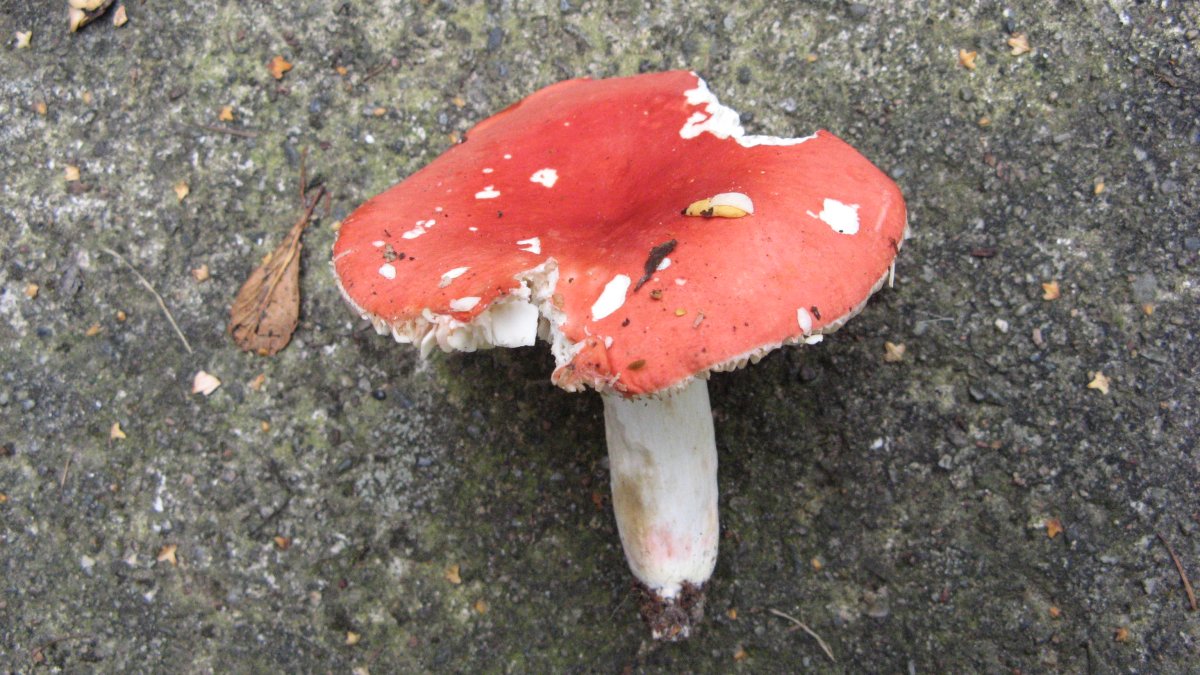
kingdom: Fungi
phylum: Basidiomycota
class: Agaricomycetes
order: Russulales
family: Russulaceae
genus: Russula
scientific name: Russula
